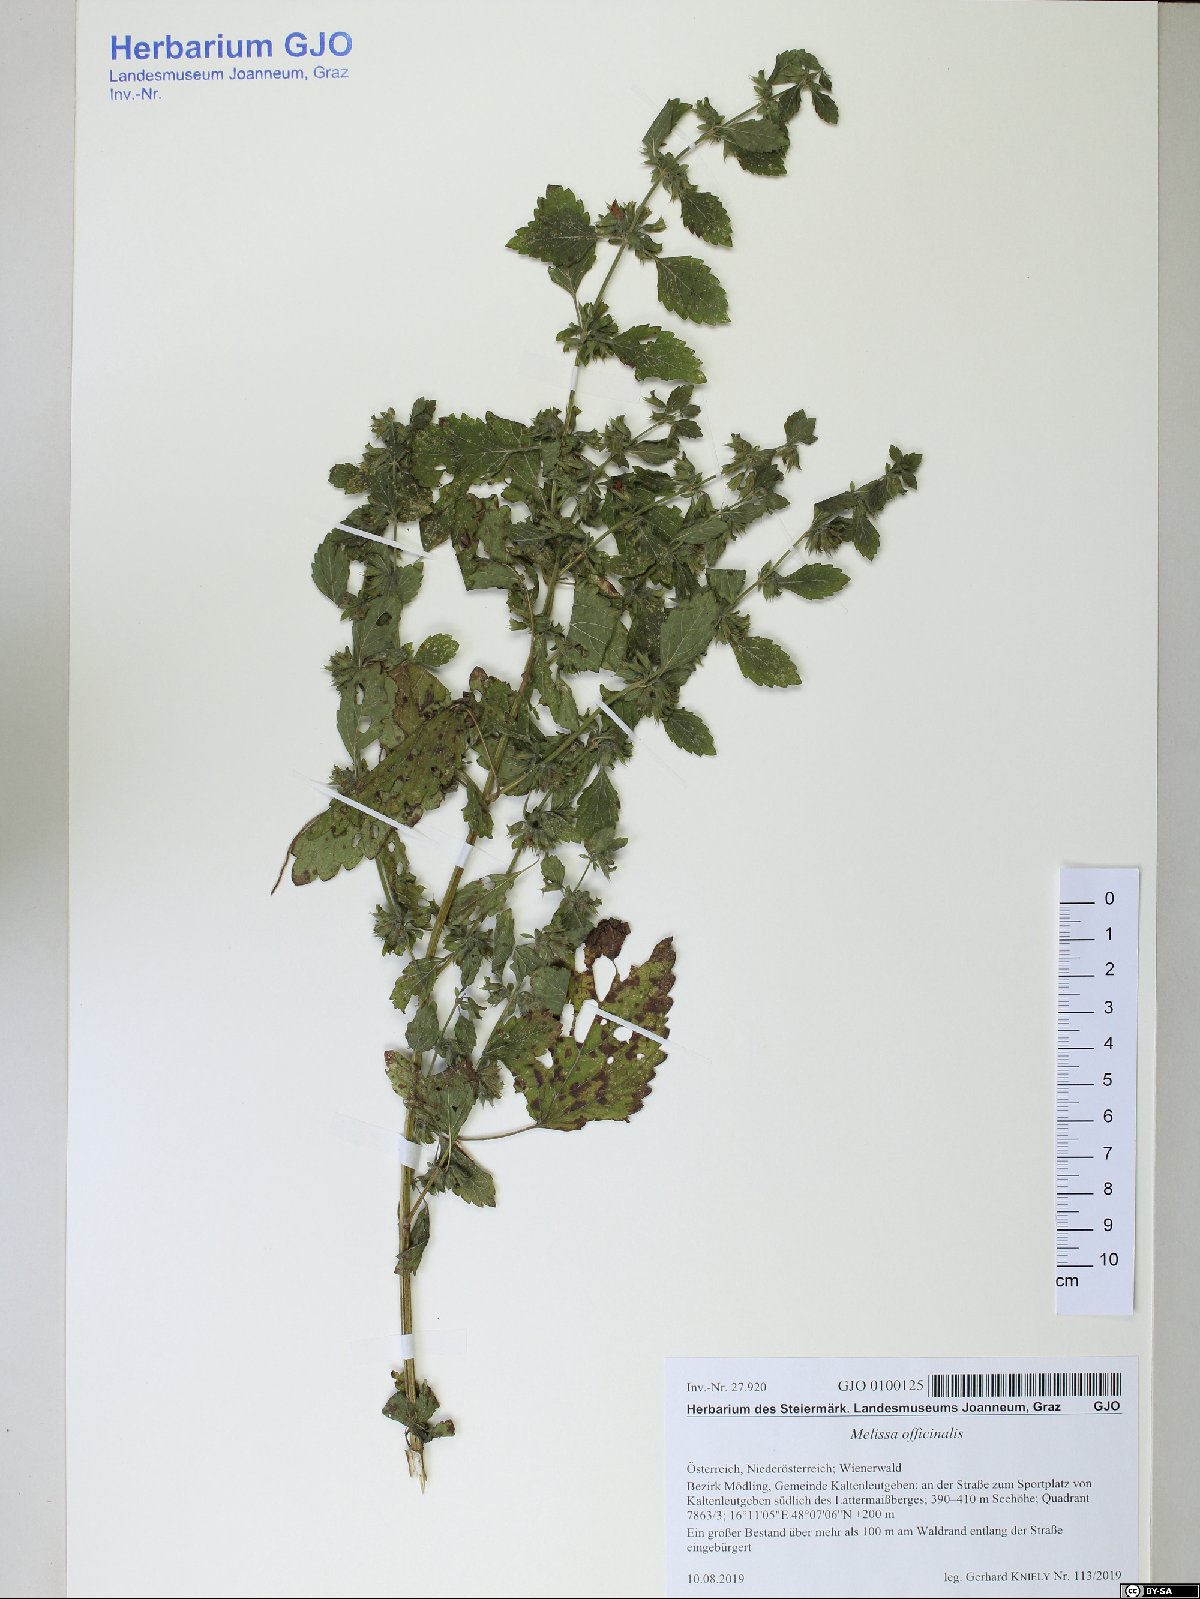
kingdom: Plantae
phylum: Tracheophyta
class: Magnoliopsida
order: Lamiales
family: Lamiaceae
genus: Melissa
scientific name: Melissa officinalis
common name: Balm
